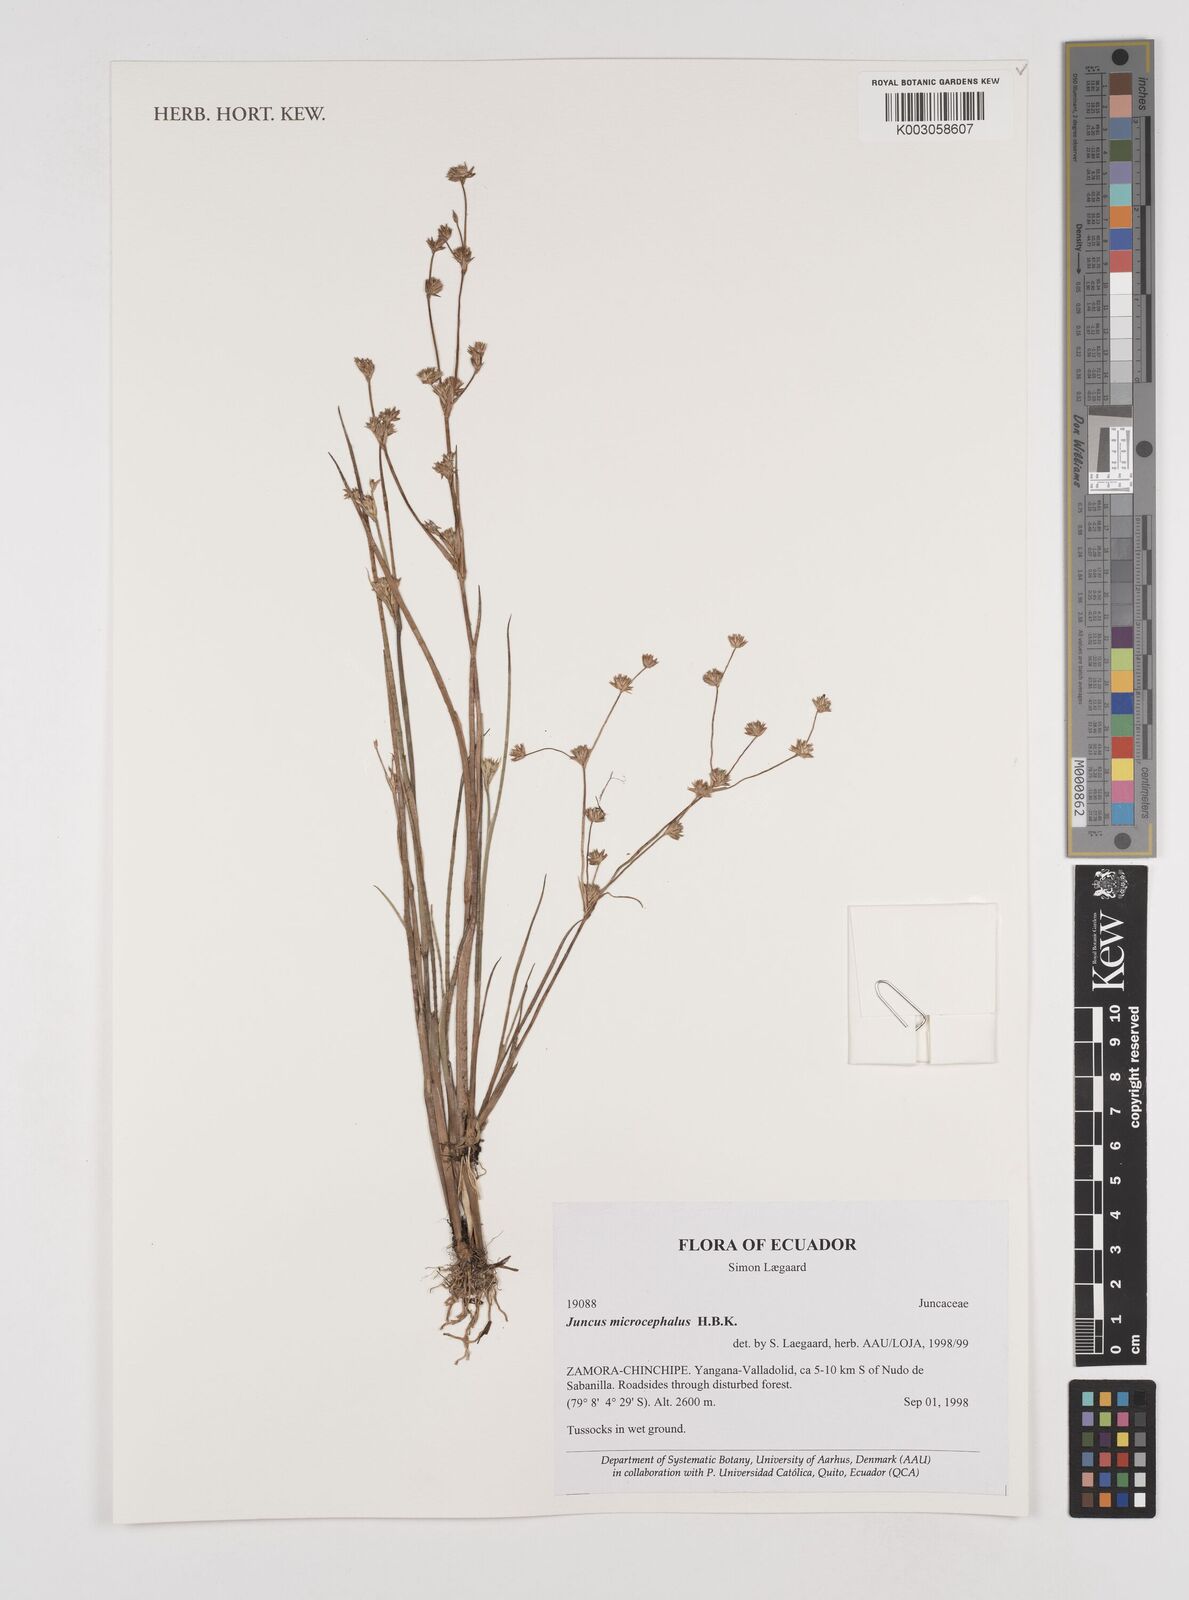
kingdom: Plantae
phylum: Tracheophyta
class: Liliopsida
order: Poales
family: Juncaceae
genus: Juncus
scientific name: Juncus
